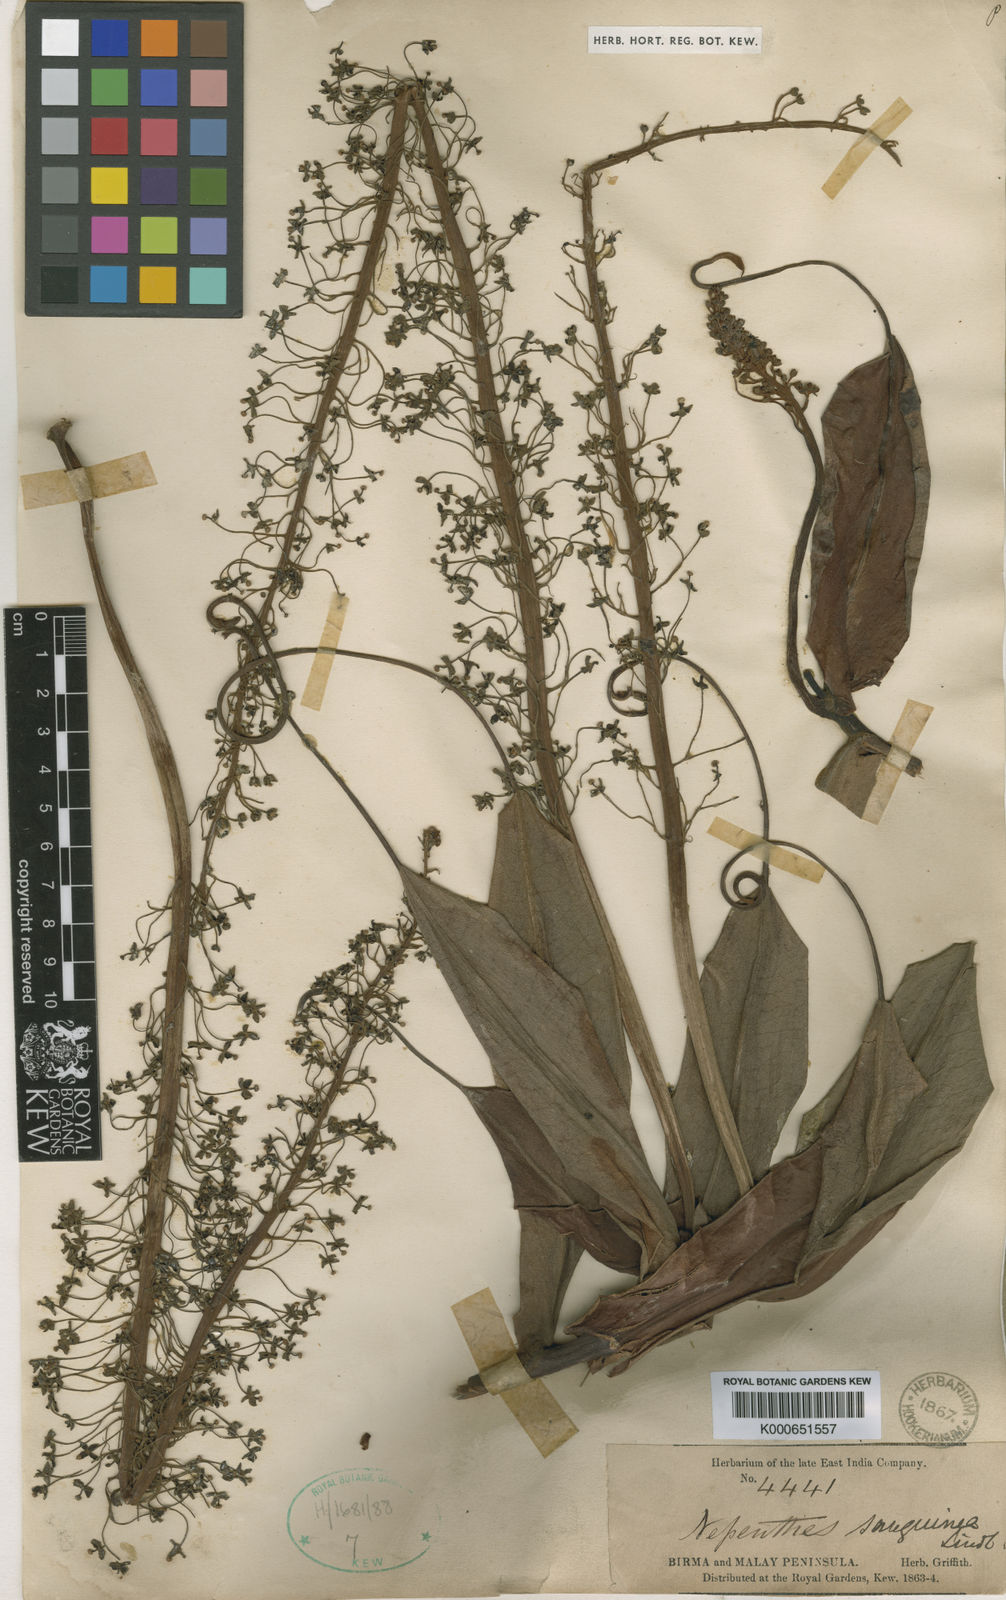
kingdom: Plantae
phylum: Tracheophyta
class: Magnoliopsida
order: Caryophyllales
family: Nepenthaceae
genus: Nepenthes
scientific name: Nepenthes sanguinea
